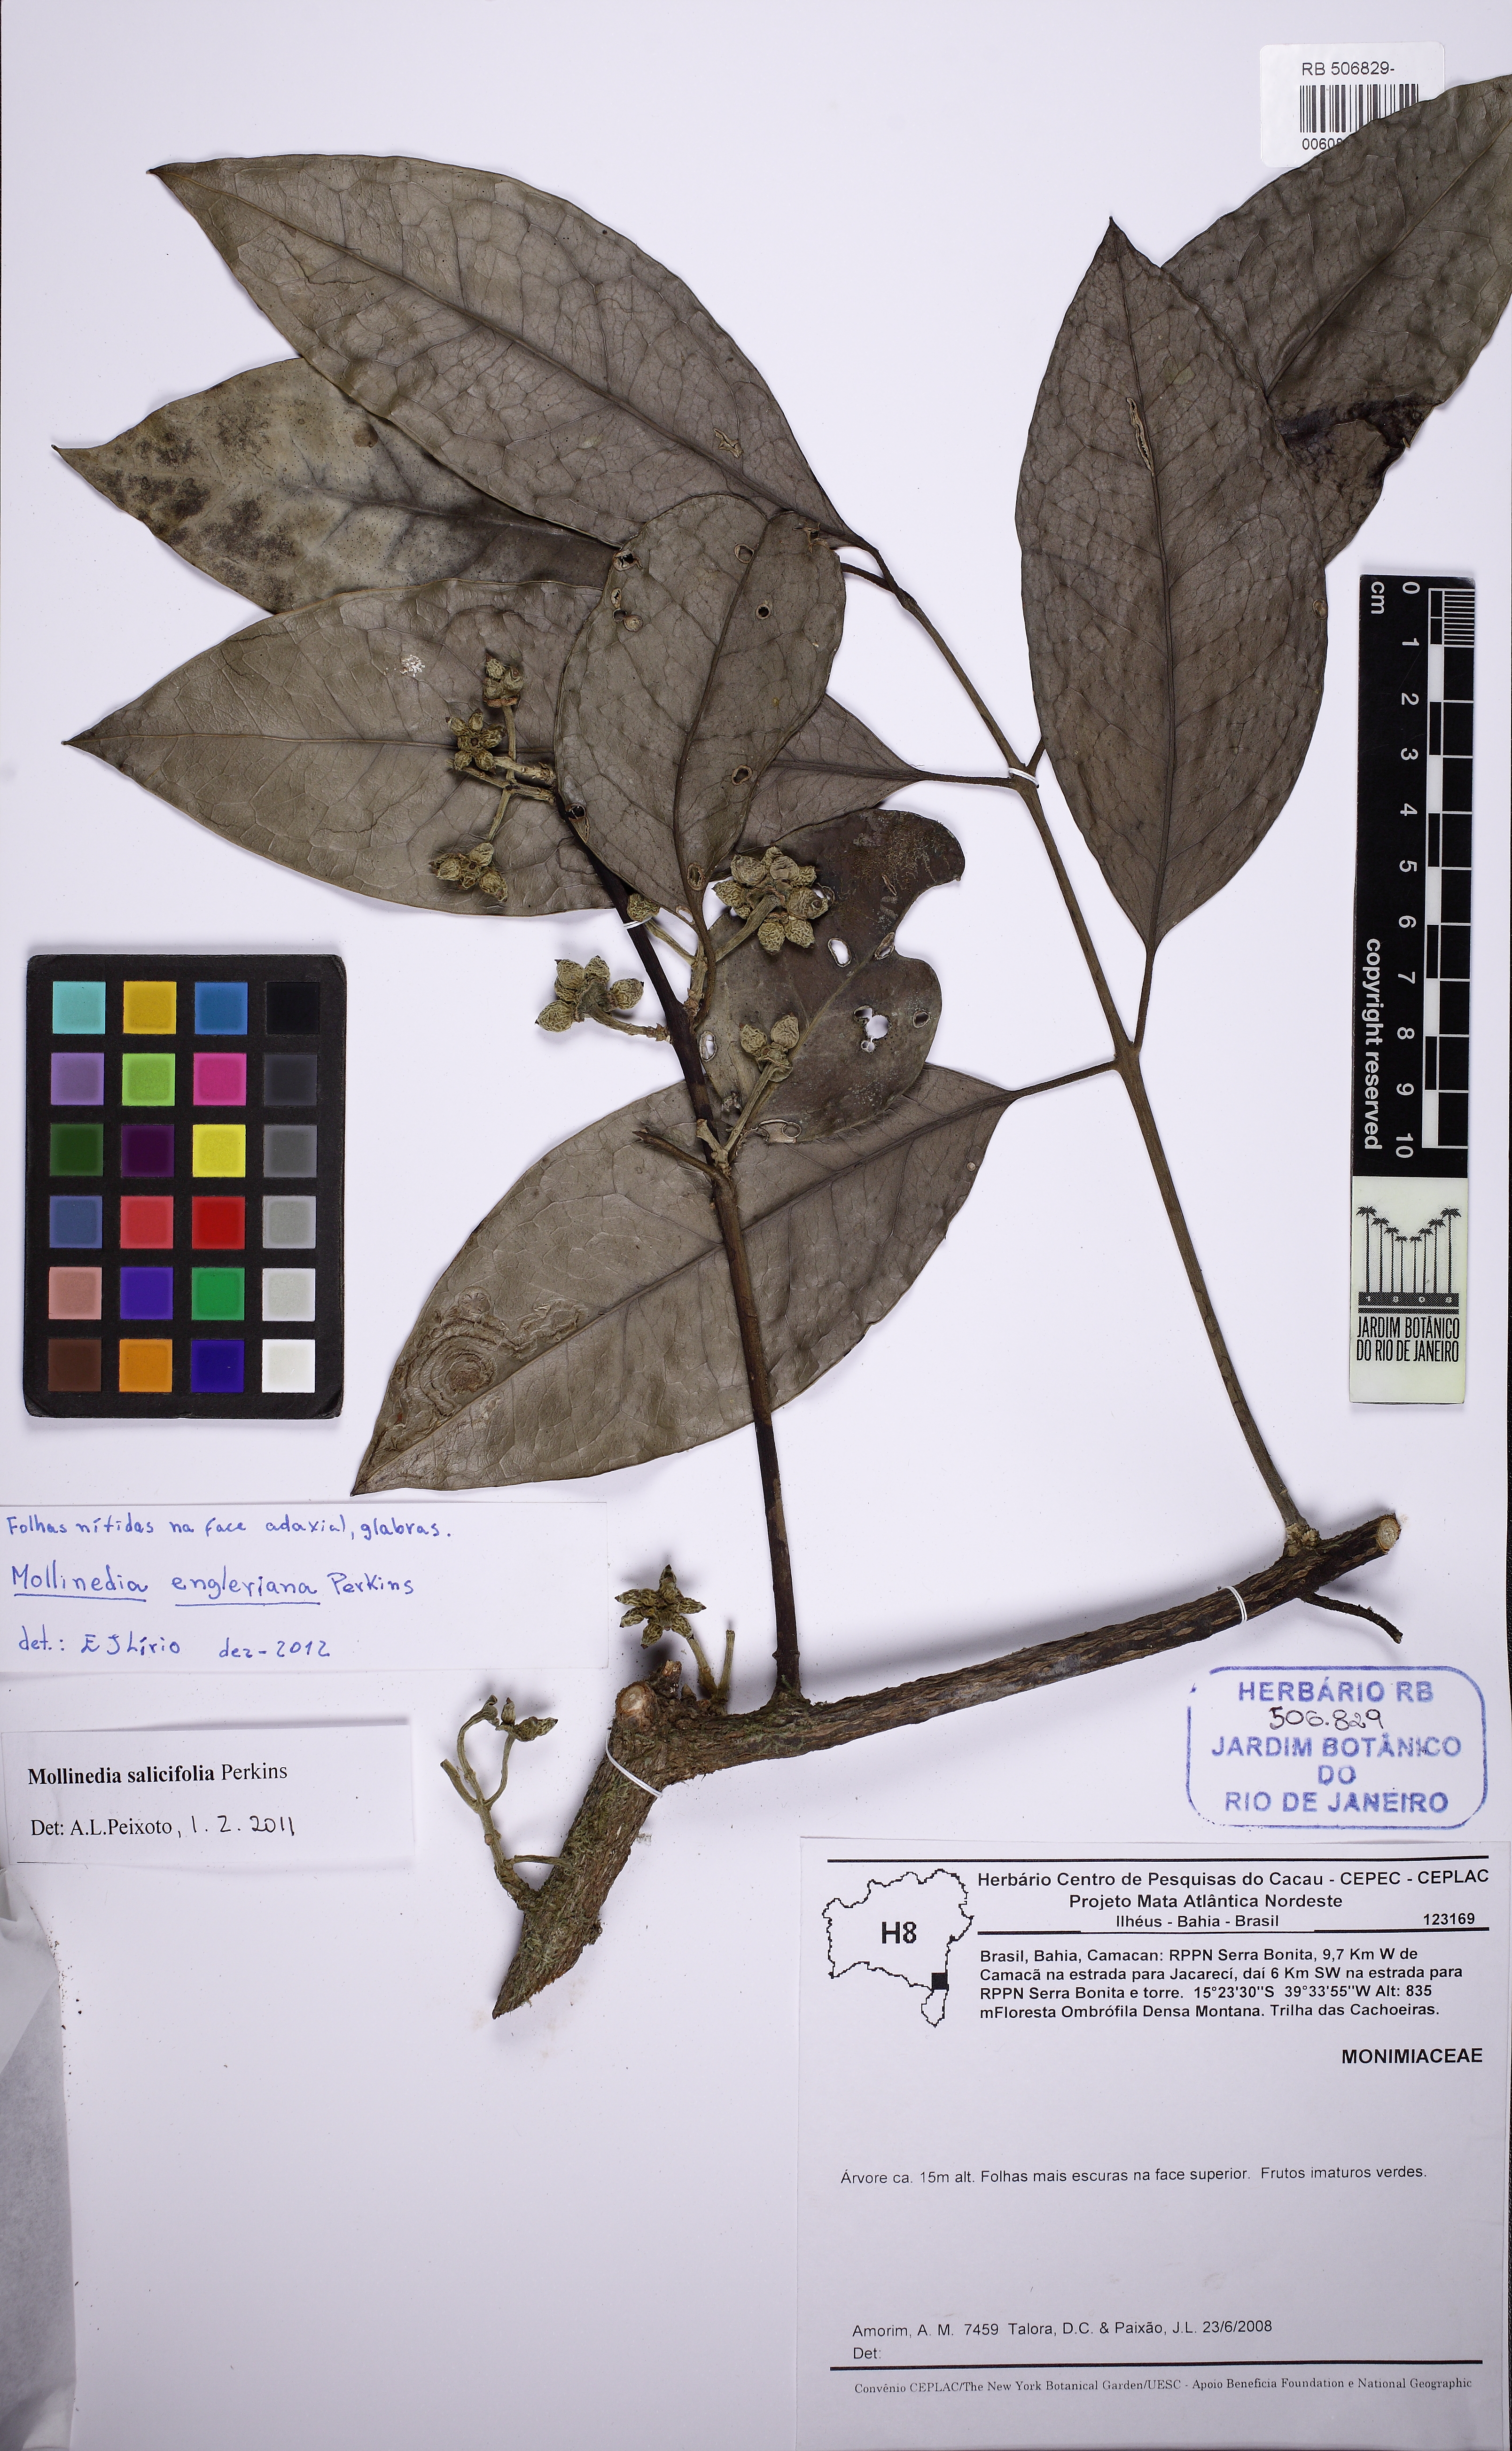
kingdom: Plantae
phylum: Tracheophyta
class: Magnoliopsida
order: Laurales
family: Monimiaceae
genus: Mollinedia
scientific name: Mollinedia engleriana
